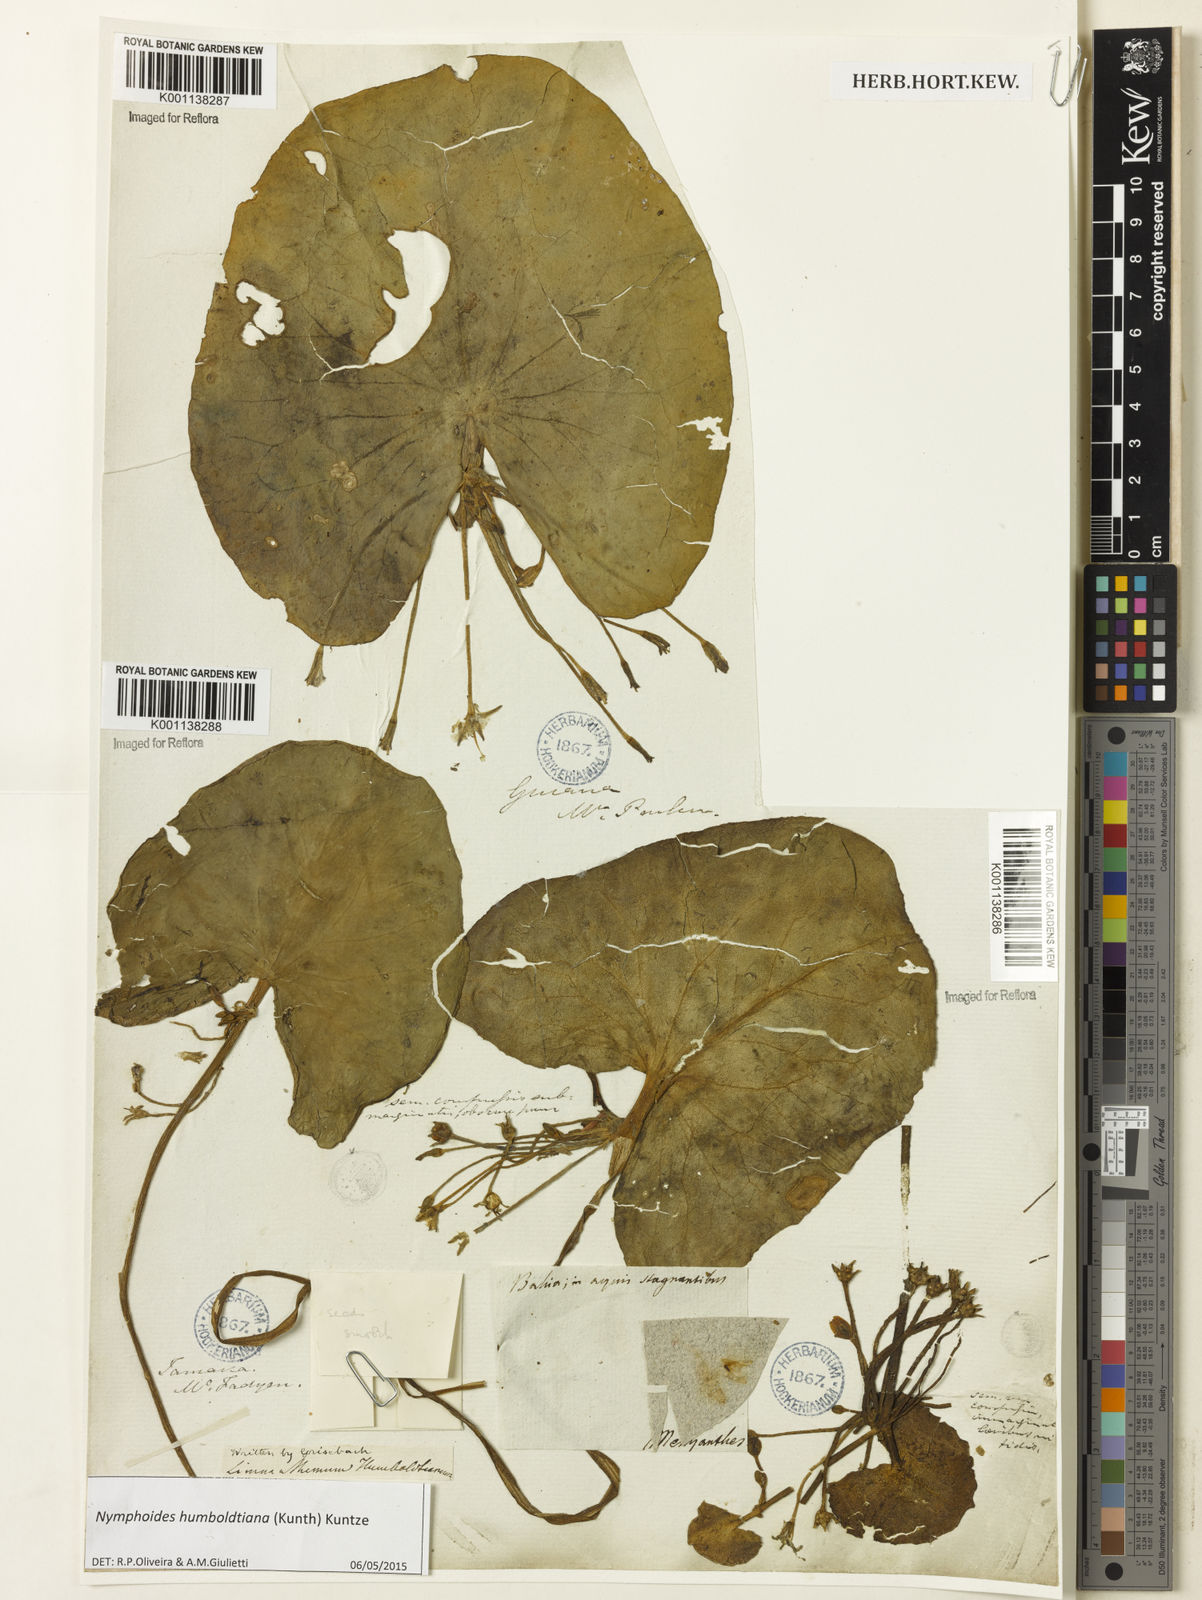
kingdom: Plantae
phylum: Tracheophyta
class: Magnoliopsida
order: Asterales
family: Menyanthaceae
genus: Nymphoides
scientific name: Nymphoides humboldtiana
